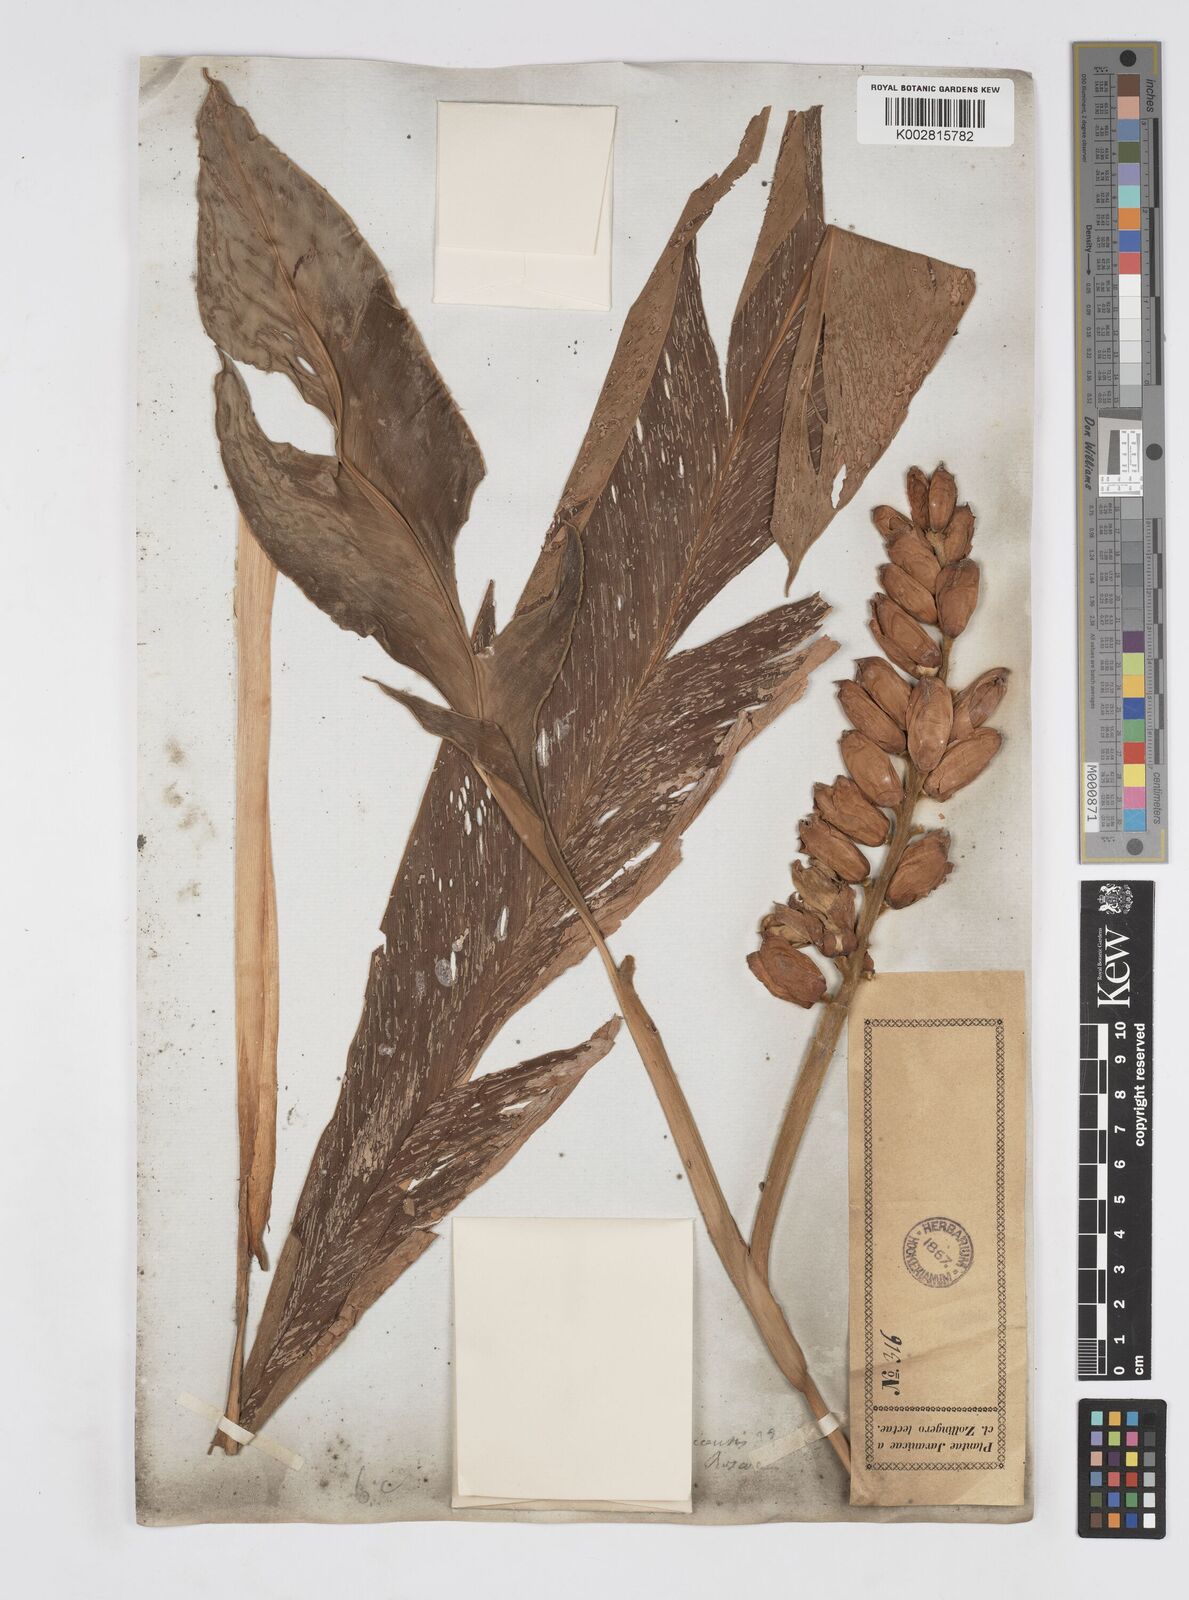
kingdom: Plantae
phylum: Tracheophyta
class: Liliopsida
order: Zingiberales
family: Zingiberaceae
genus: Alpinia
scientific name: Alpinia malaccensis
